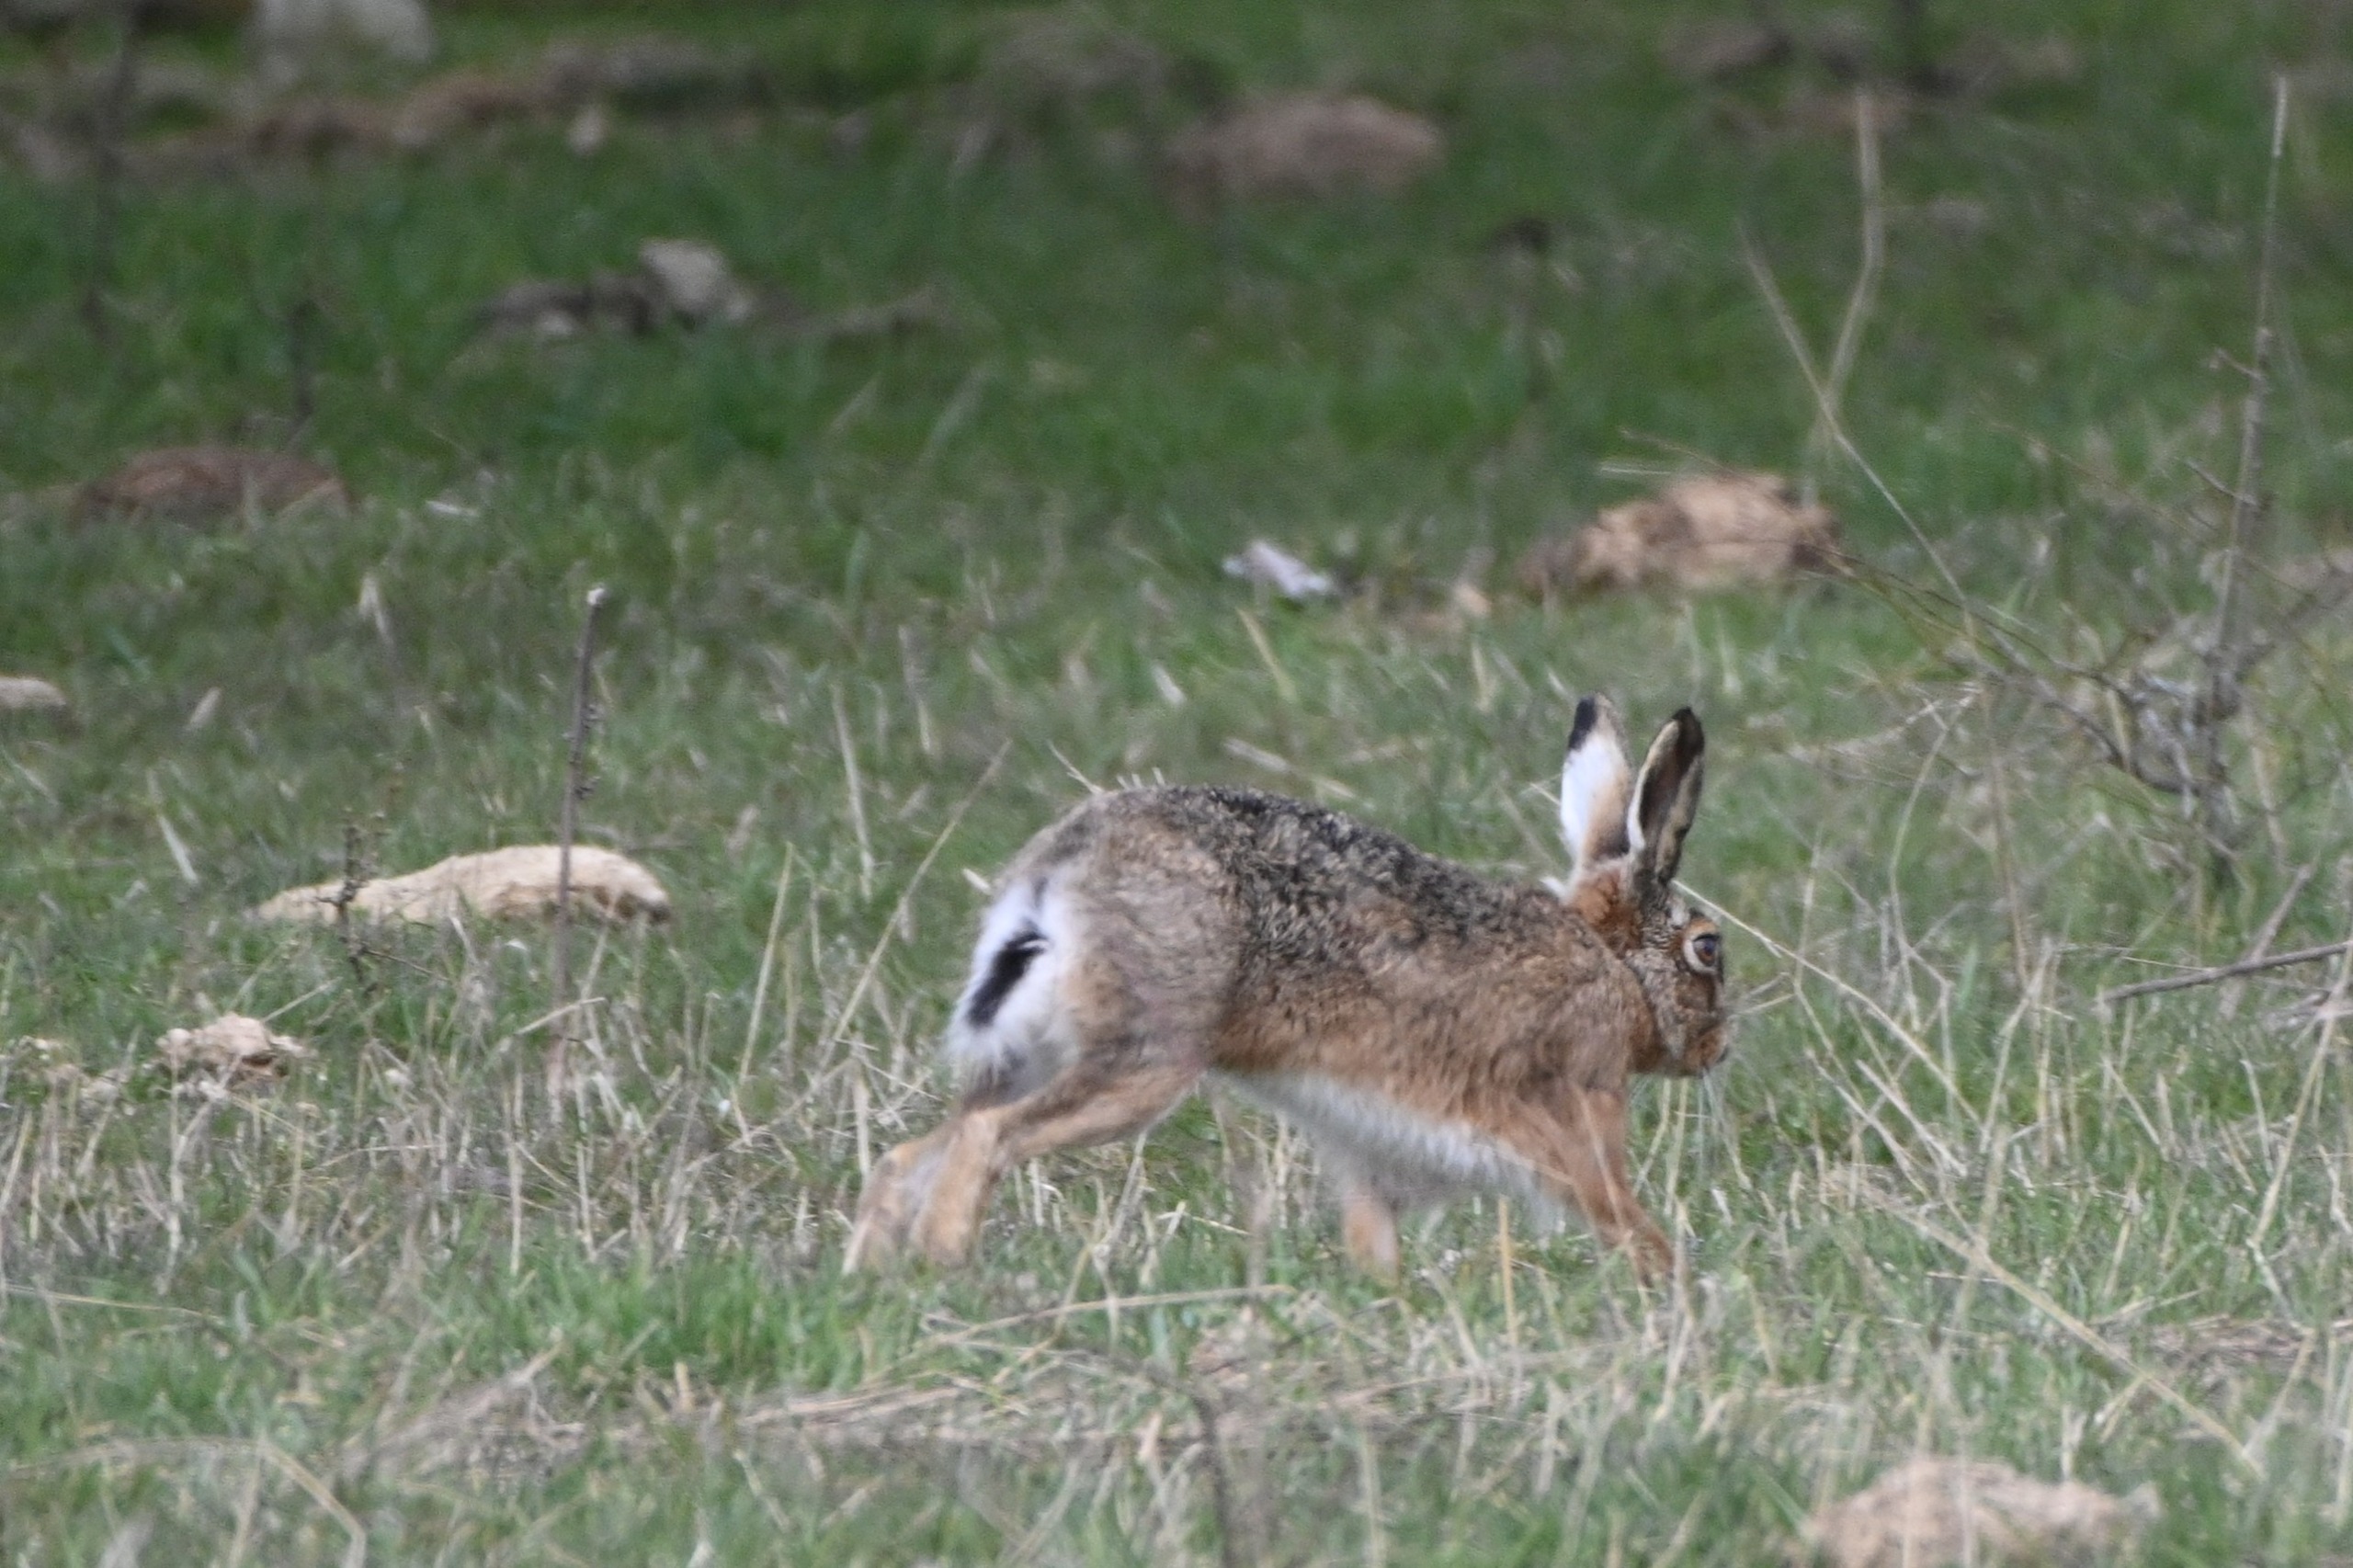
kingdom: Animalia
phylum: Chordata
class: Mammalia
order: Lagomorpha
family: Leporidae
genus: Lepus
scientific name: Lepus europaeus
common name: Hare
